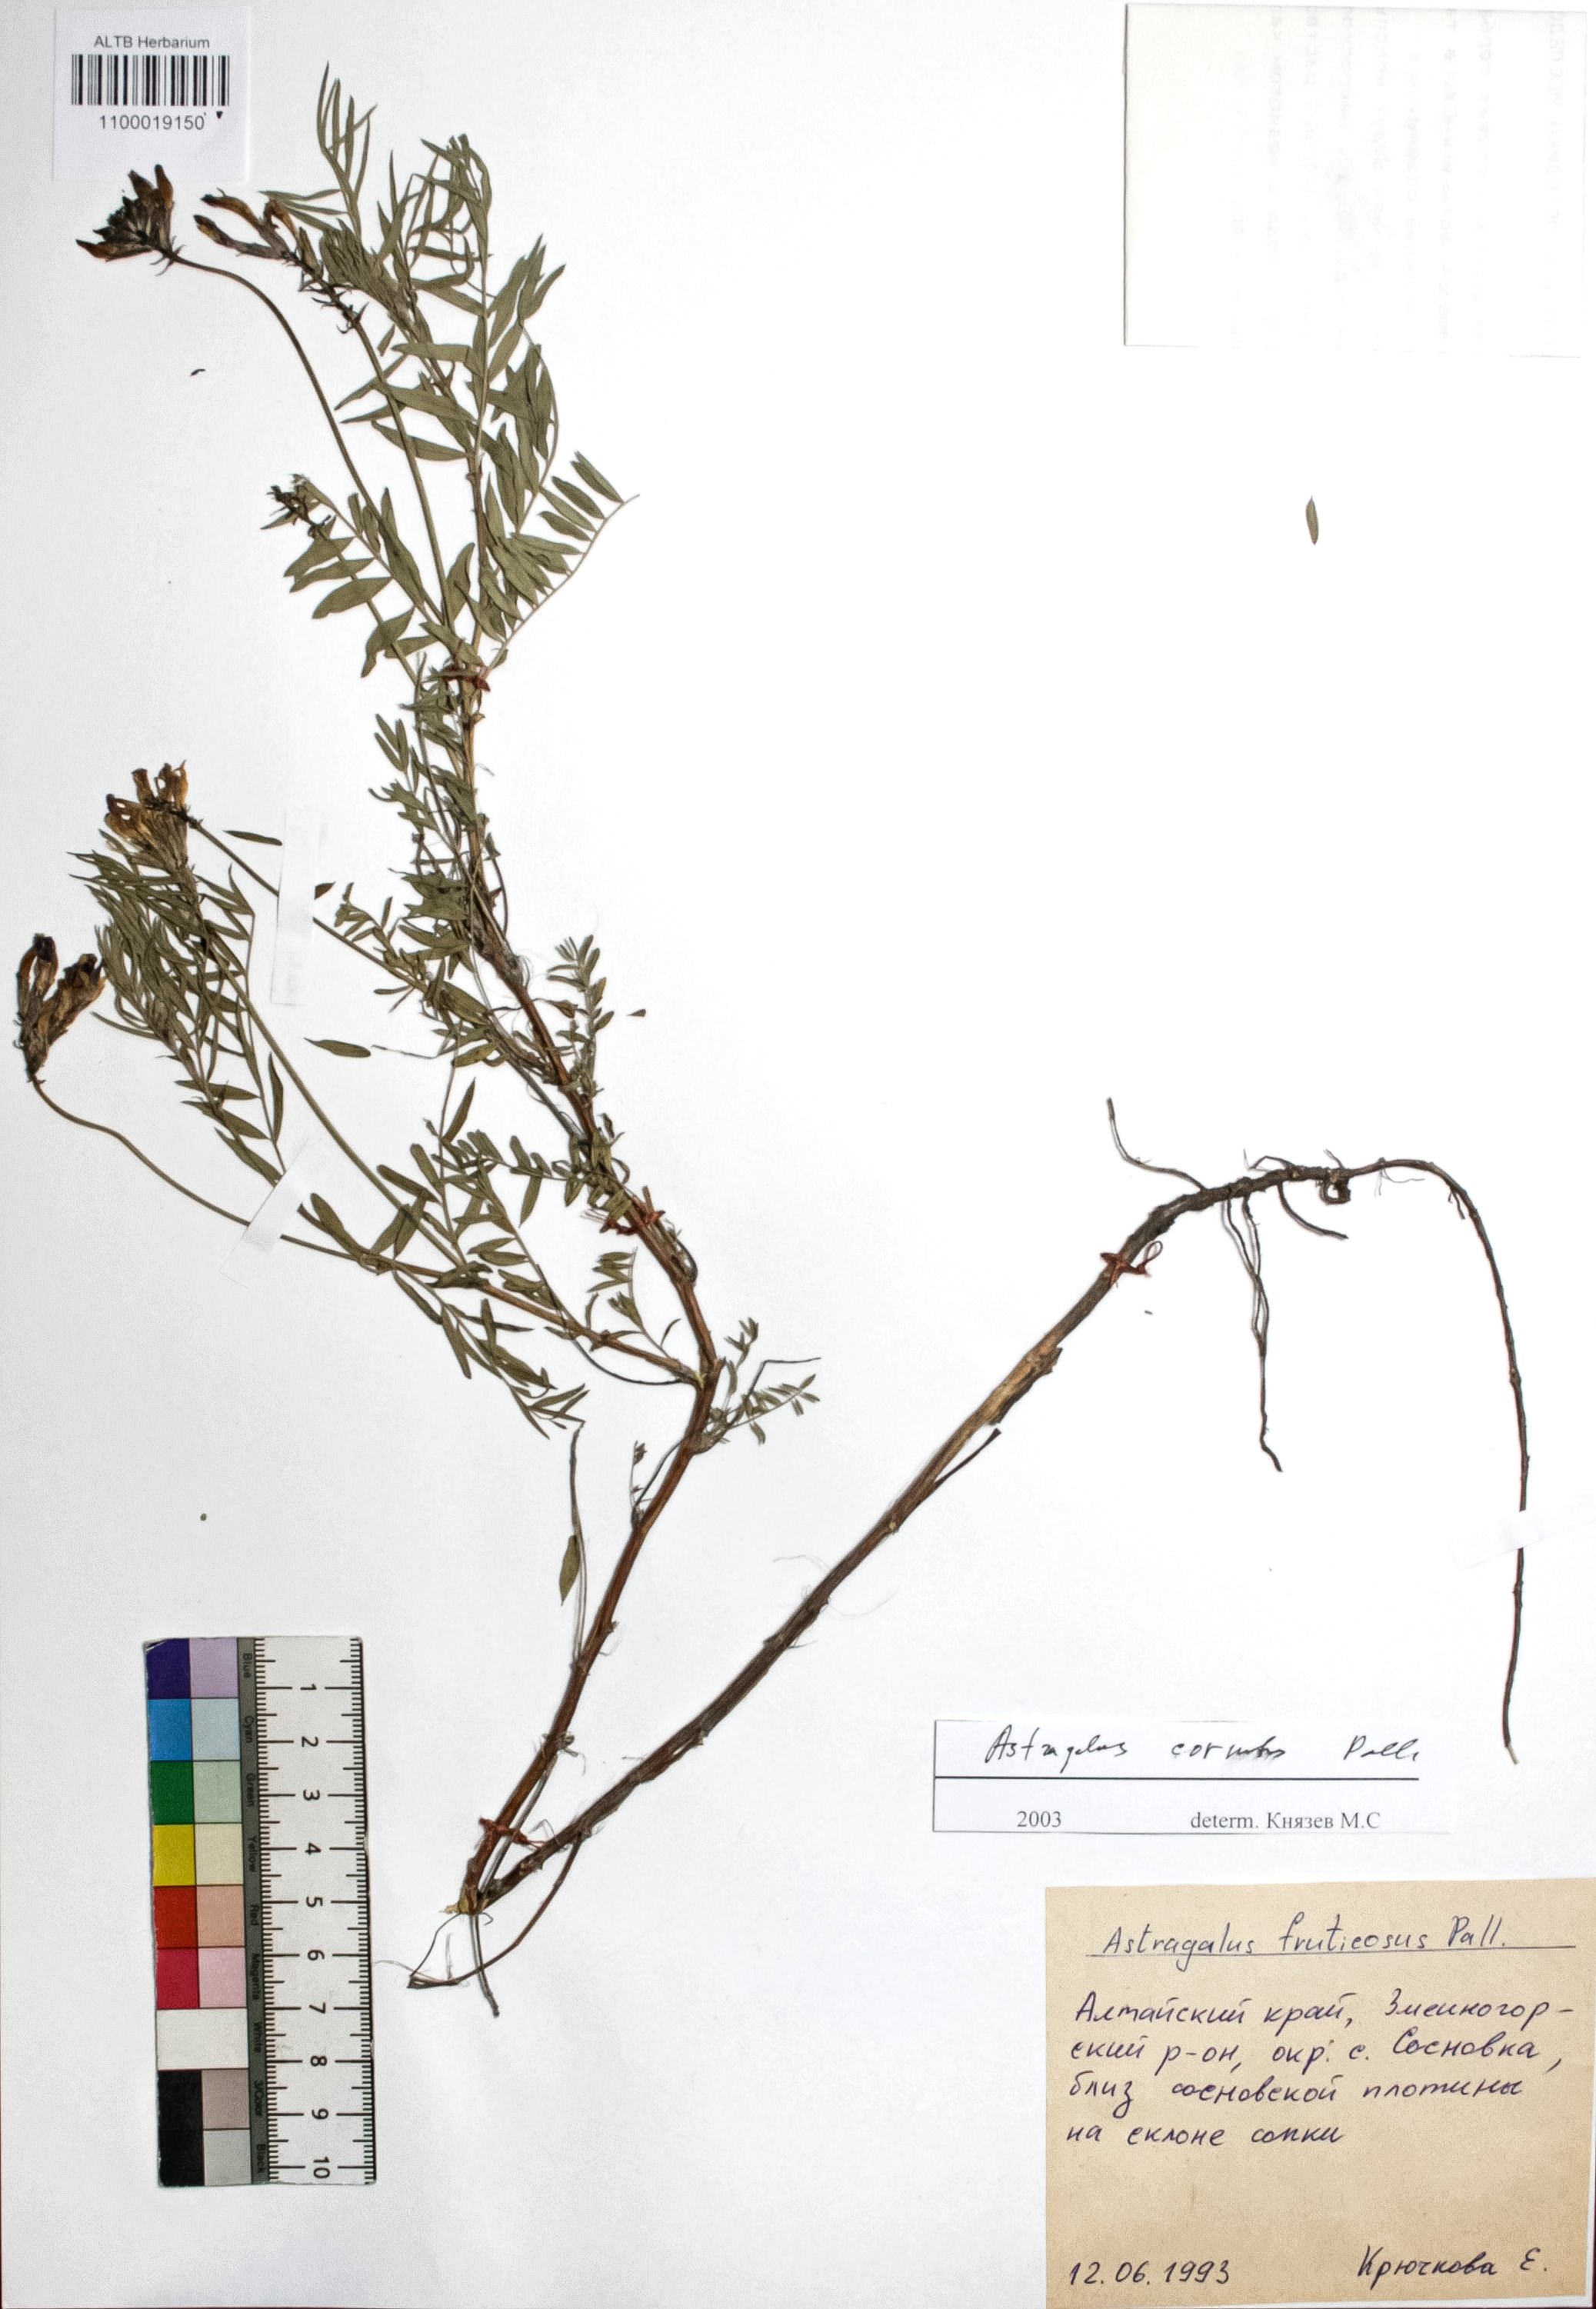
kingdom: Plantae
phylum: Tracheophyta
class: Magnoliopsida
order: Fabales
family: Fabaceae
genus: Astragalus
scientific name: Astragalus cornutus
